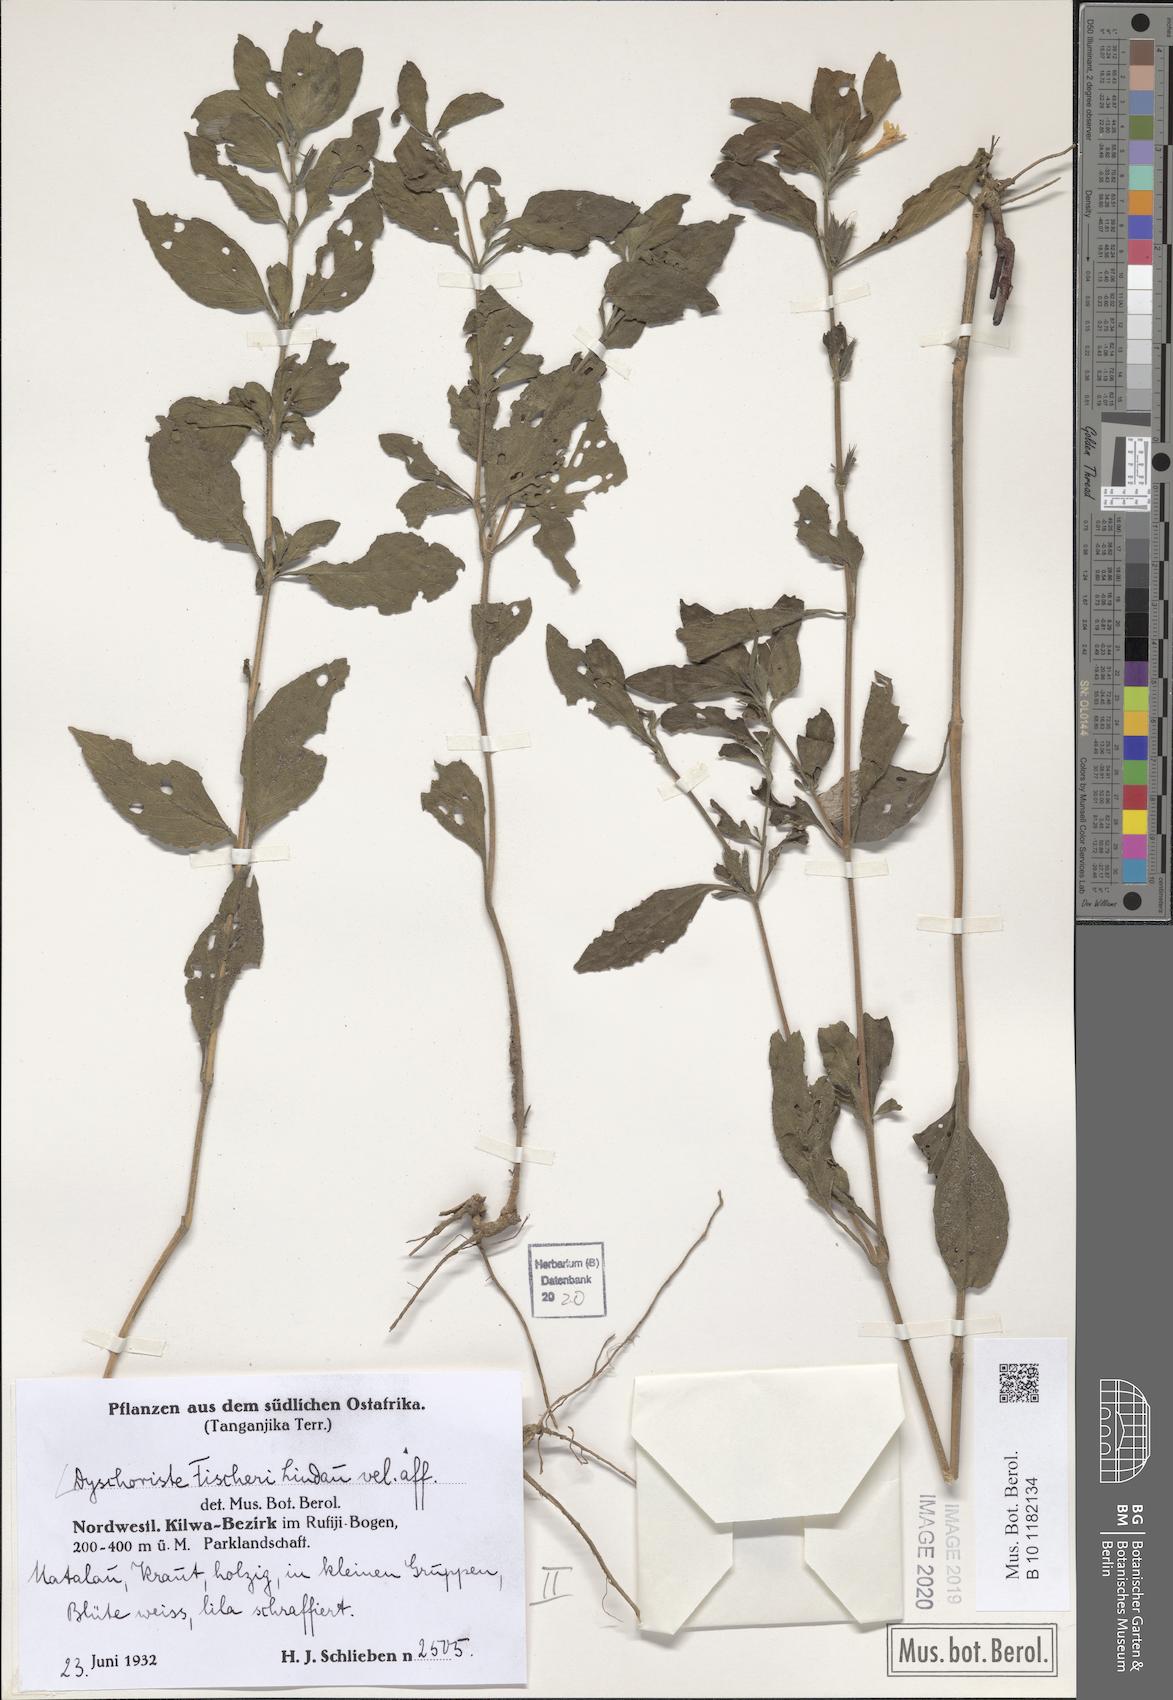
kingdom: Plantae
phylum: Tracheophyta
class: Magnoliopsida
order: Lamiales
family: Acanthaceae
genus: Dyschoriste
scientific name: Dyschoriste hildebrandtii
